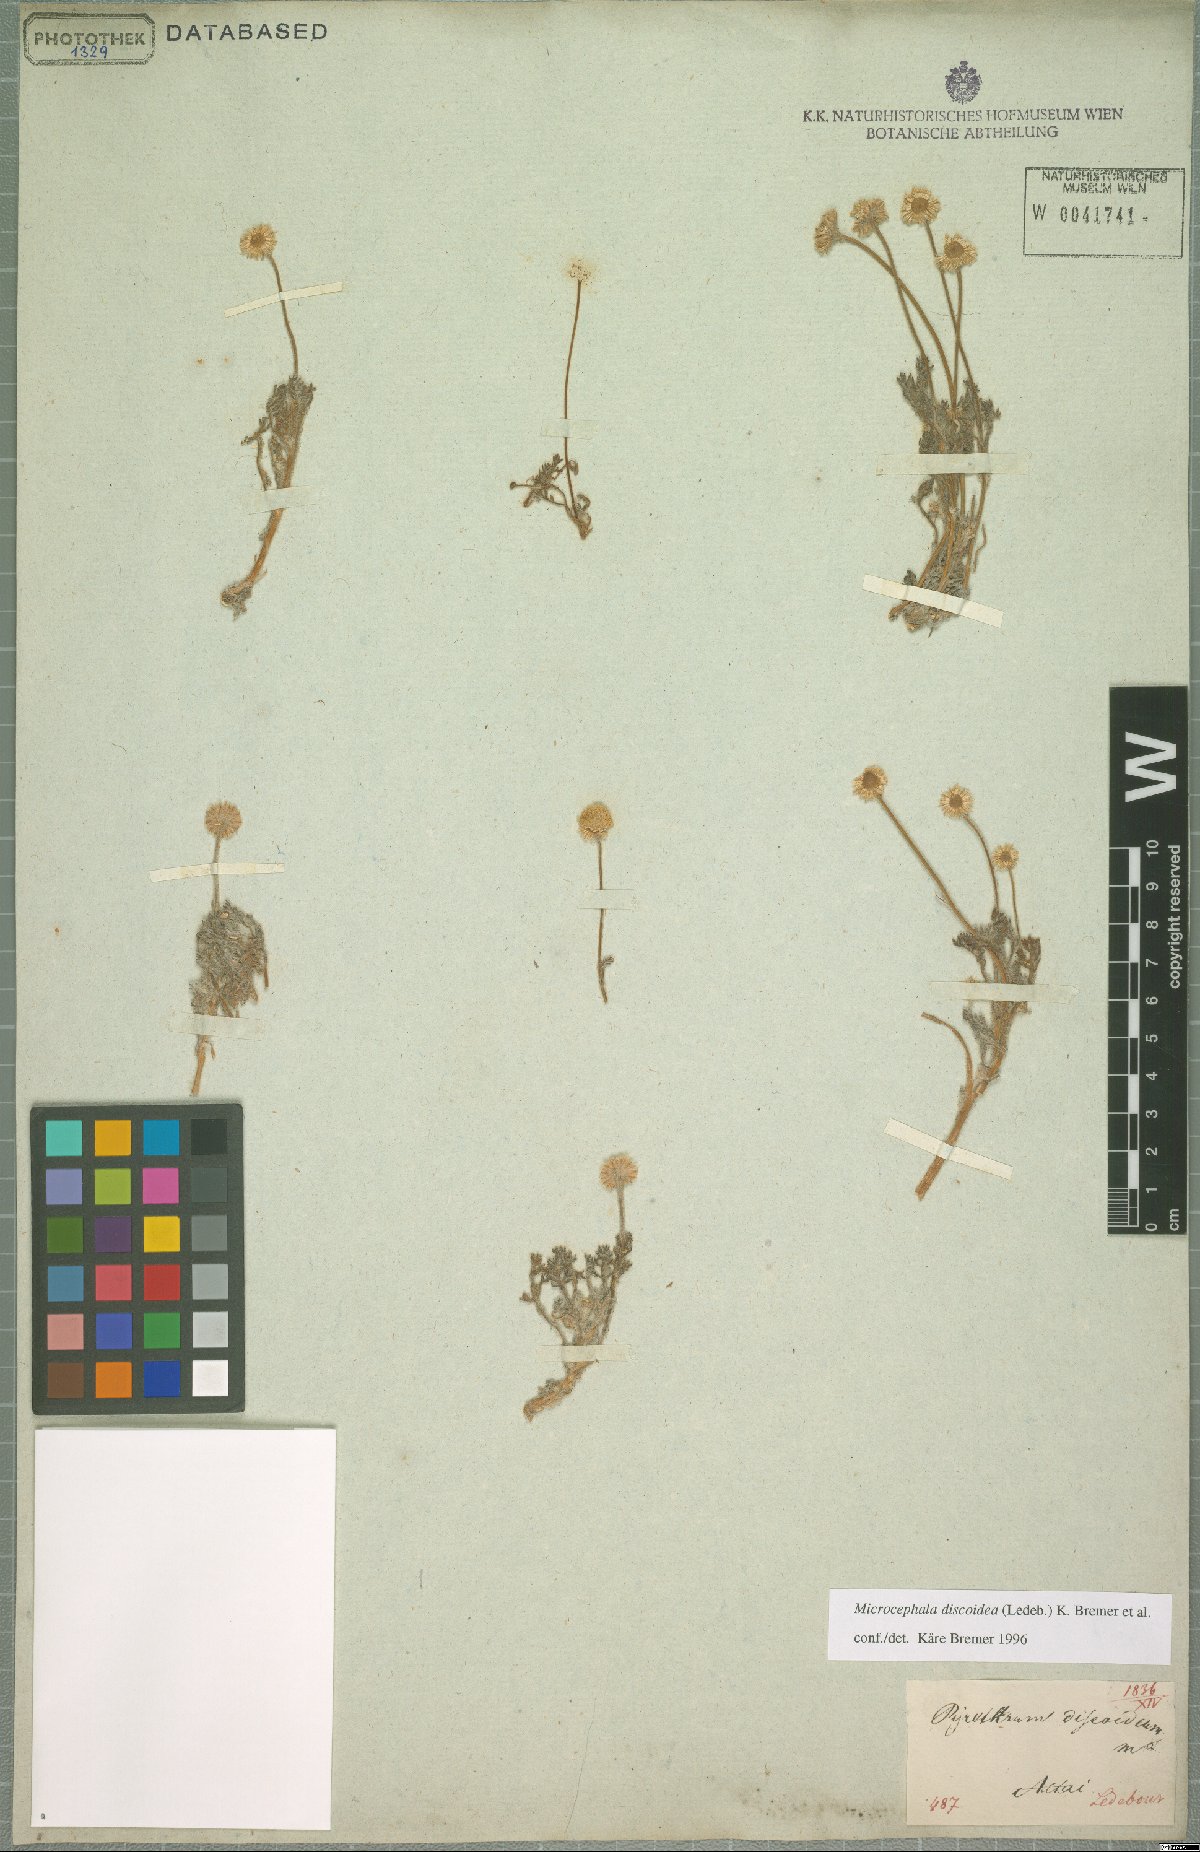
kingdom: Plantae
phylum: Tracheophyta
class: Magnoliopsida
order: Asterales
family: Asteraceae
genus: Cancrinia
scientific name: Cancrinia discoidea
